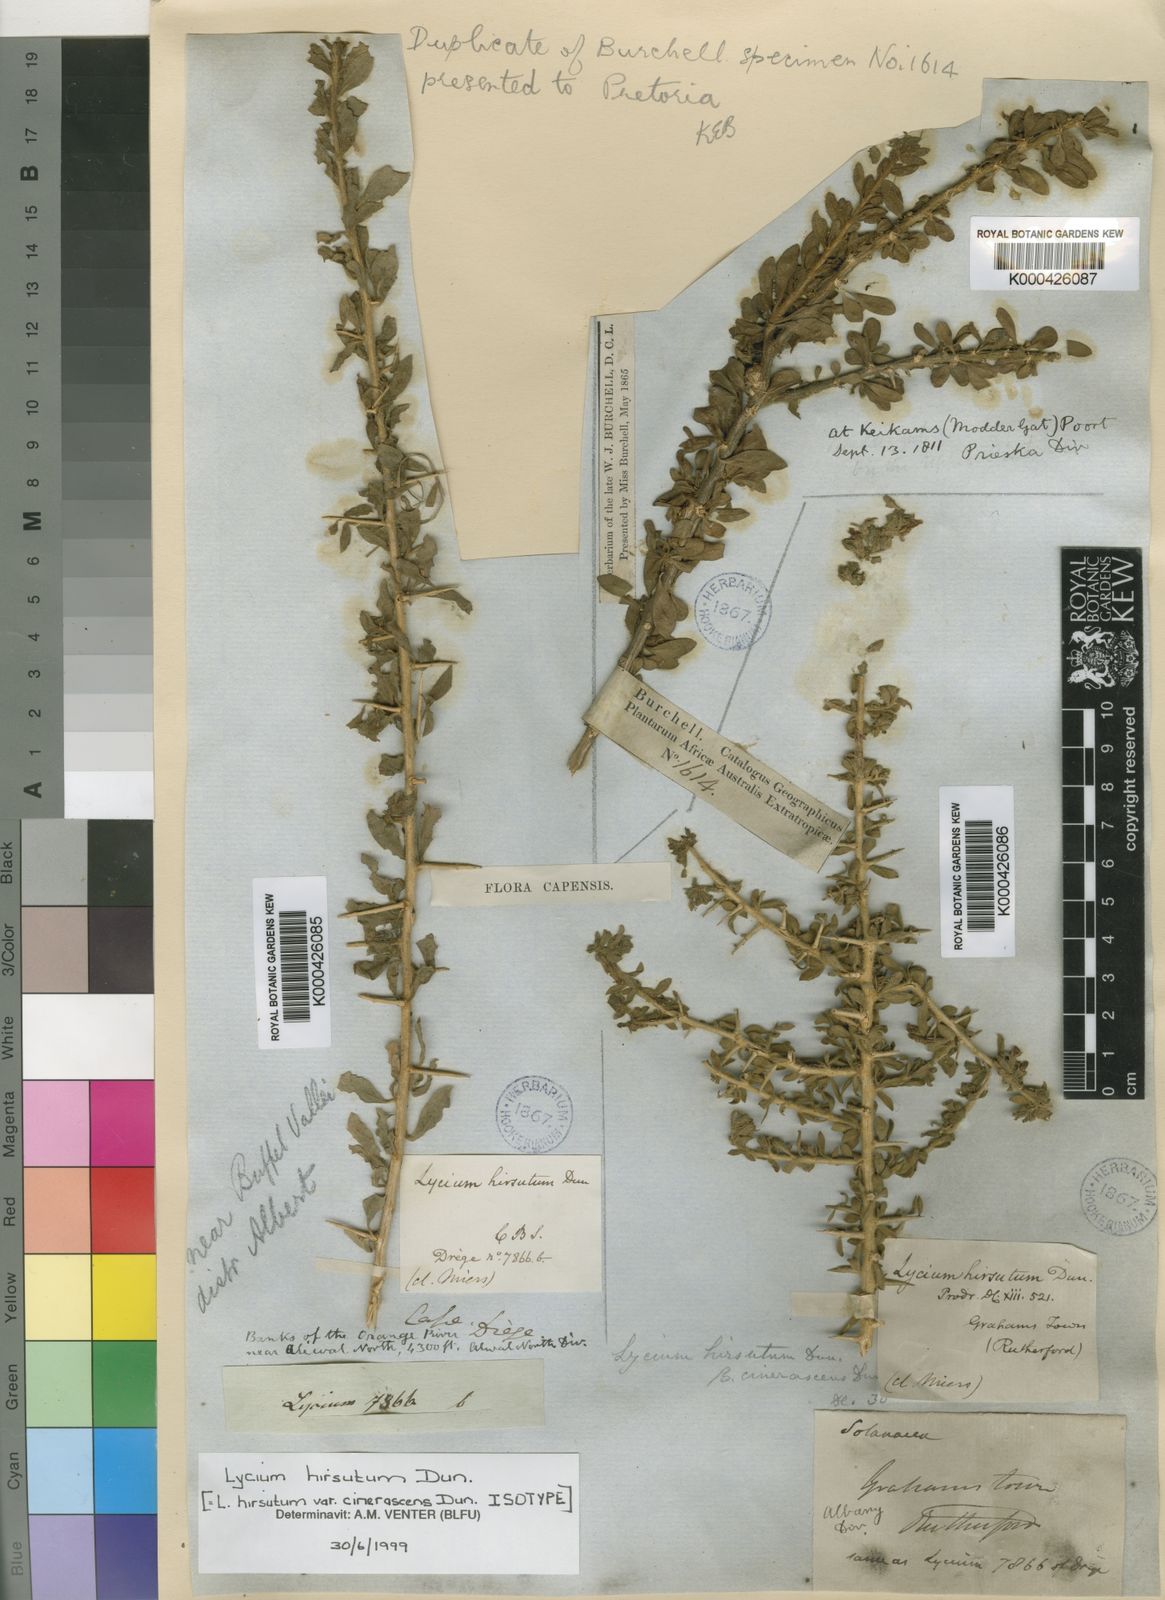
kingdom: Plantae
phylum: Tracheophyta
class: Magnoliopsida
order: Solanales
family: Solanaceae
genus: Lycium
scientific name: Lycium hirsutum
